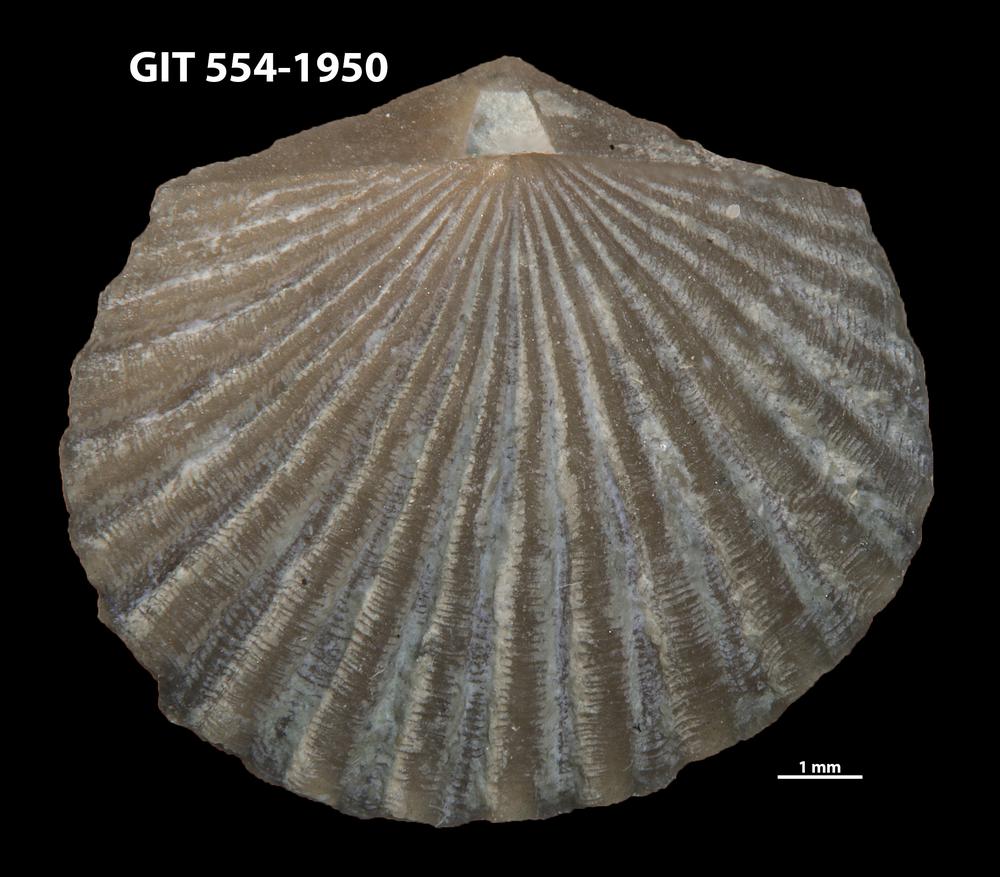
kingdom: Animalia
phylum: Brachiopoda
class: Rhynchonellata
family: Dolerorthidae
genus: Hesperorthis
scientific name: Hesperorthis hillistensis
